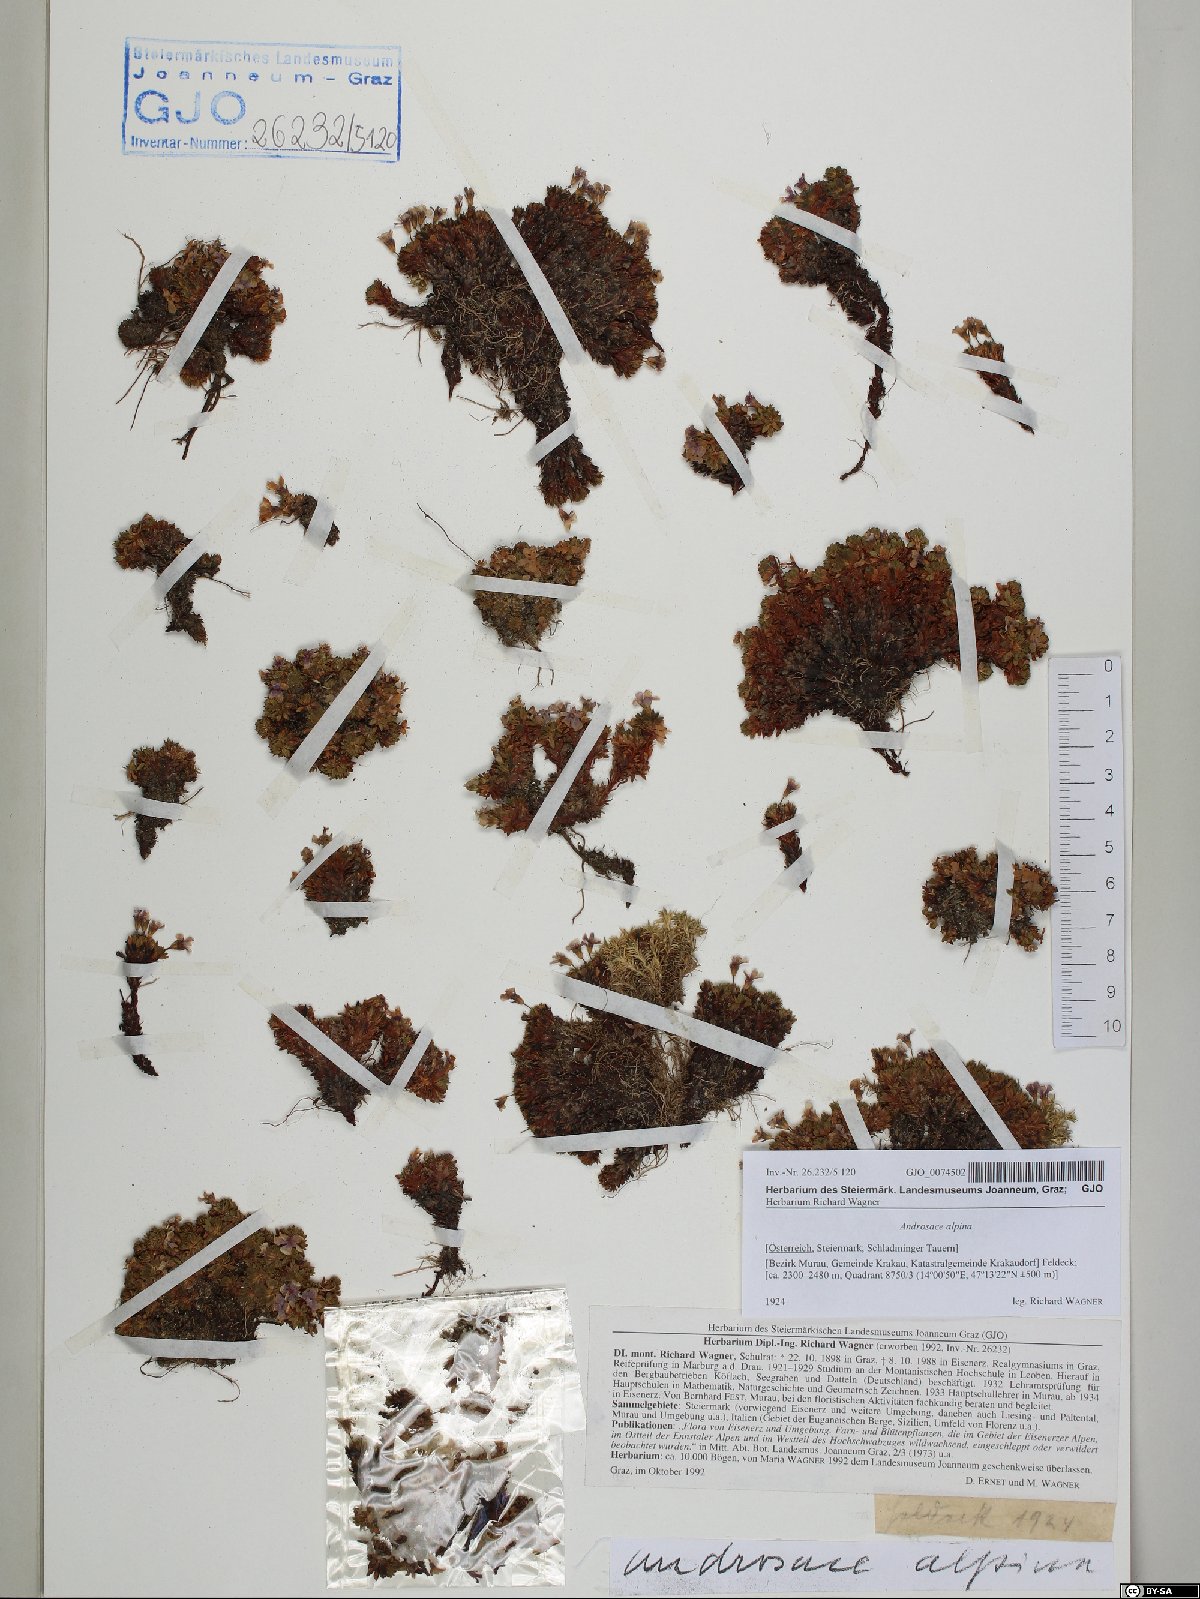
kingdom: Plantae
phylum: Tracheophyta
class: Magnoliopsida
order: Ericales
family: Primulaceae
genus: Androsace
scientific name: Androsace alpina
